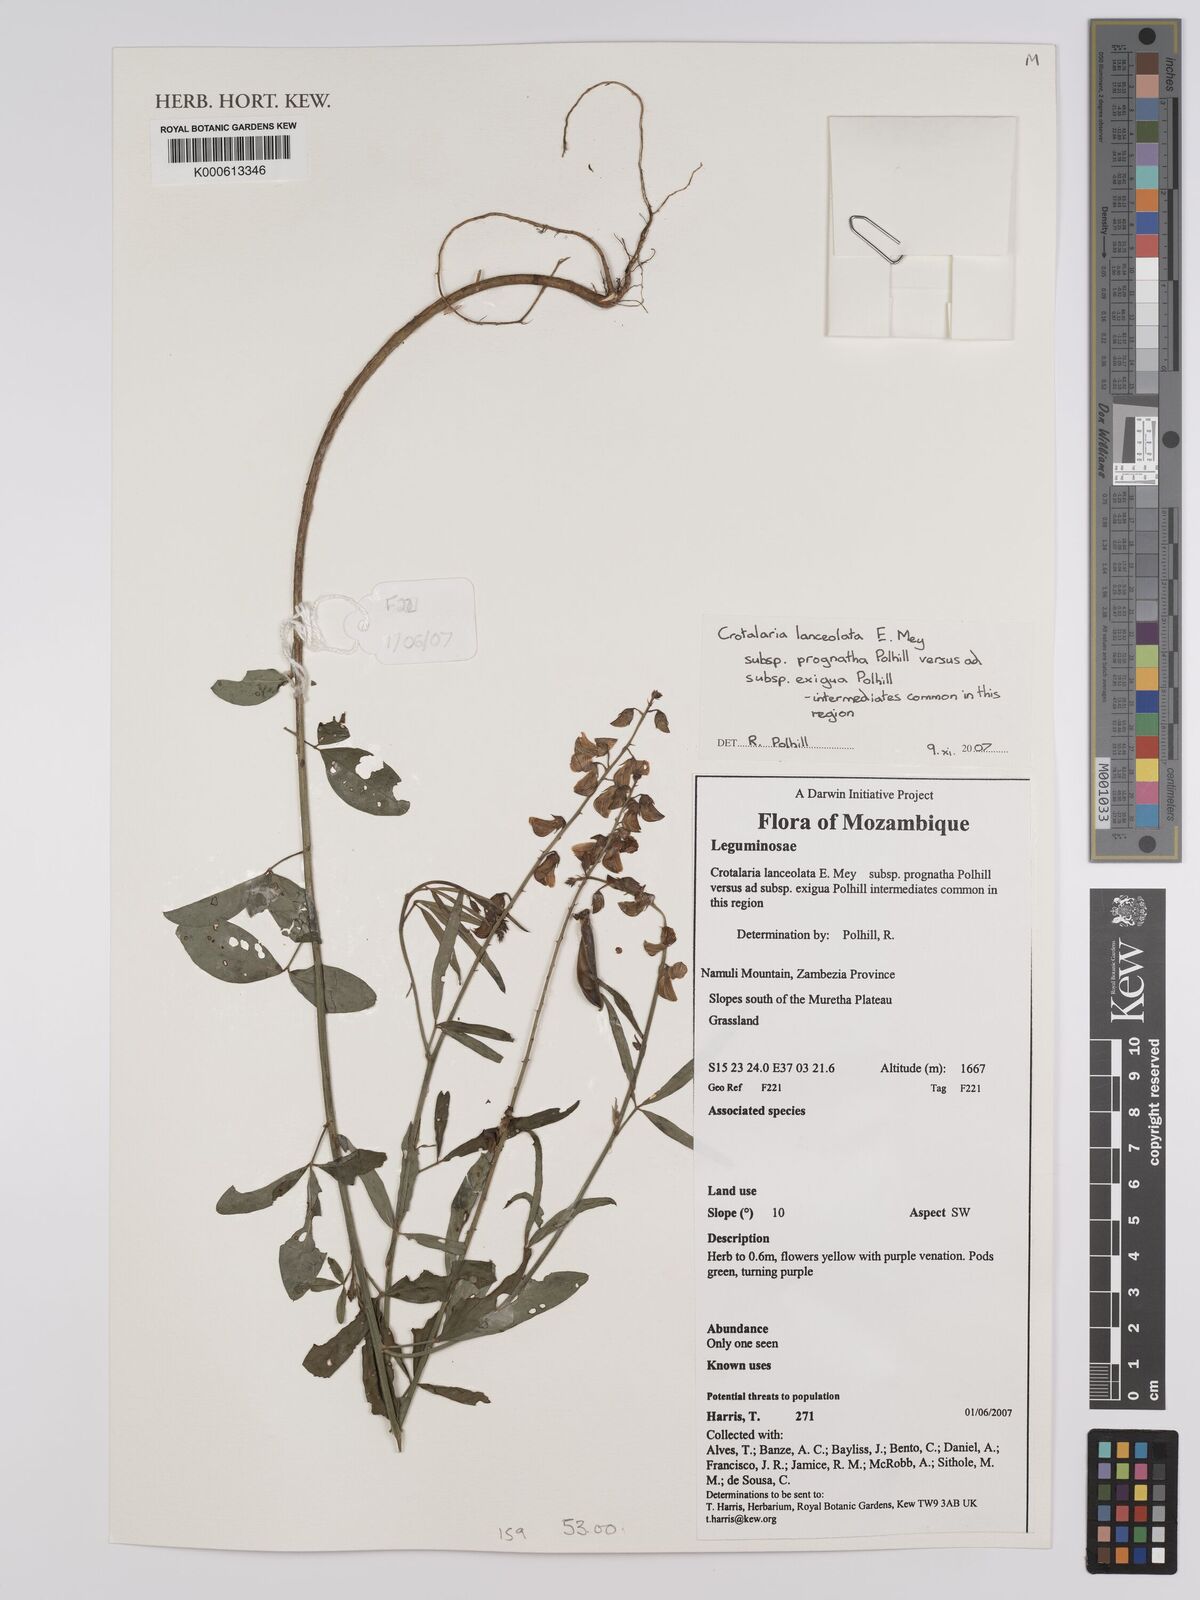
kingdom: Plantae
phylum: Tracheophyta
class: Magnoliopsida
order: Fabales
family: Fabaceae
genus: Crotalaria
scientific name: Crotalaria lanceolata
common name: Lanceleaf rattlebox
